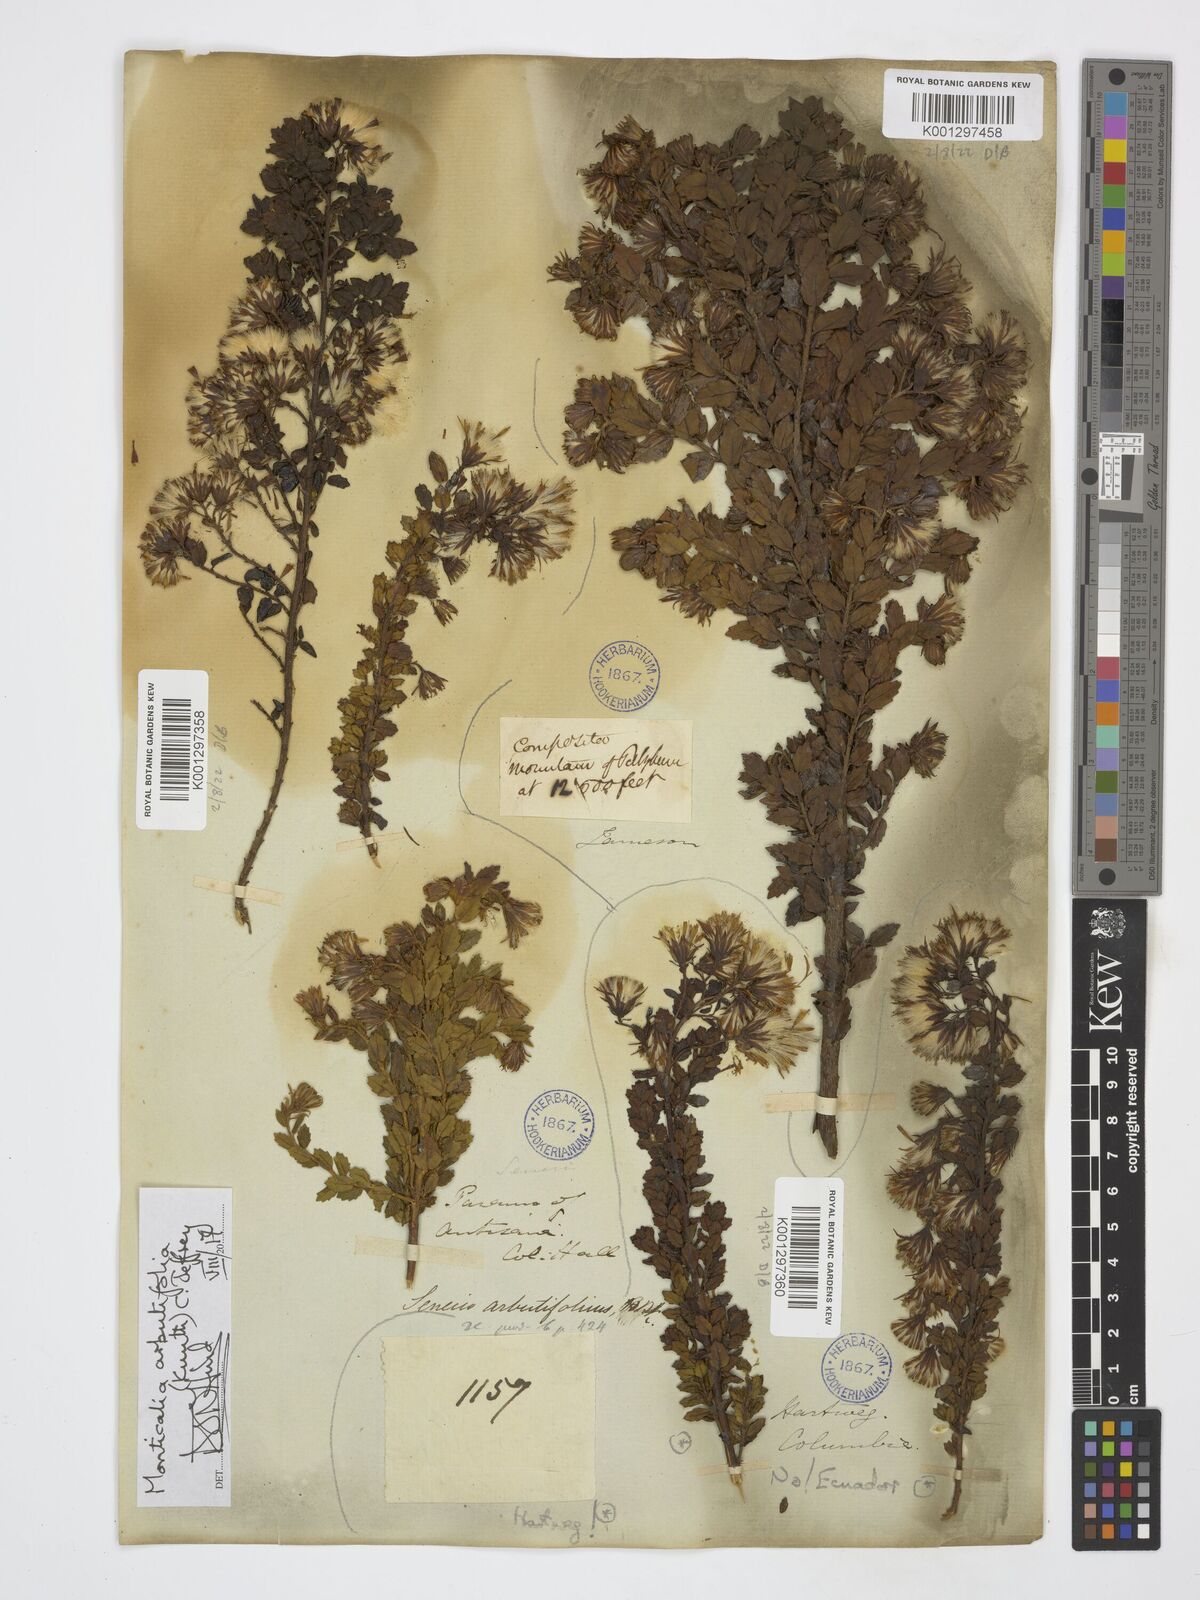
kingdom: Plantae
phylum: Tracheophyta
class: Magnoliopsida
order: Asterales
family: Asteraceae
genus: Monticalia
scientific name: Monticalia arbutifolia
